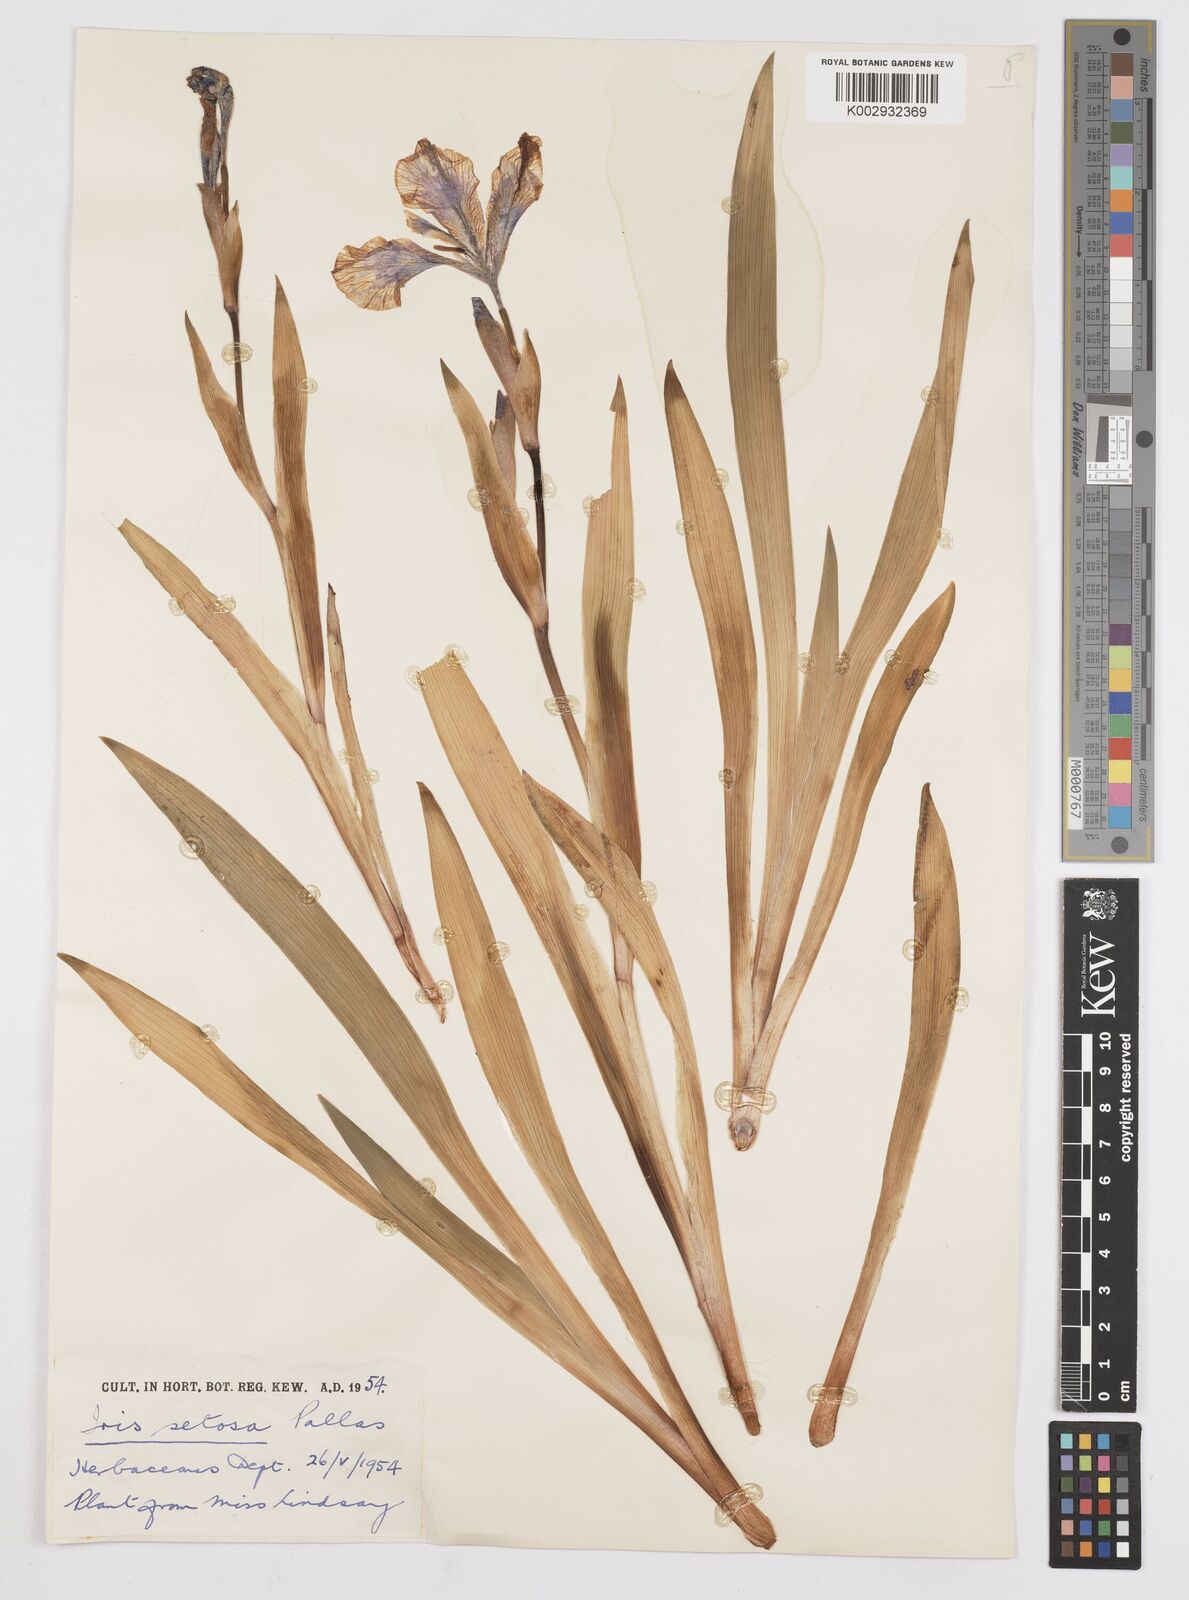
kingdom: Plantae
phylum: Tracheophyta
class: Liliopsida
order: Asparagales
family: Iridaceae
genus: Iris
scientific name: Iris setosa
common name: Arctic blue flag
